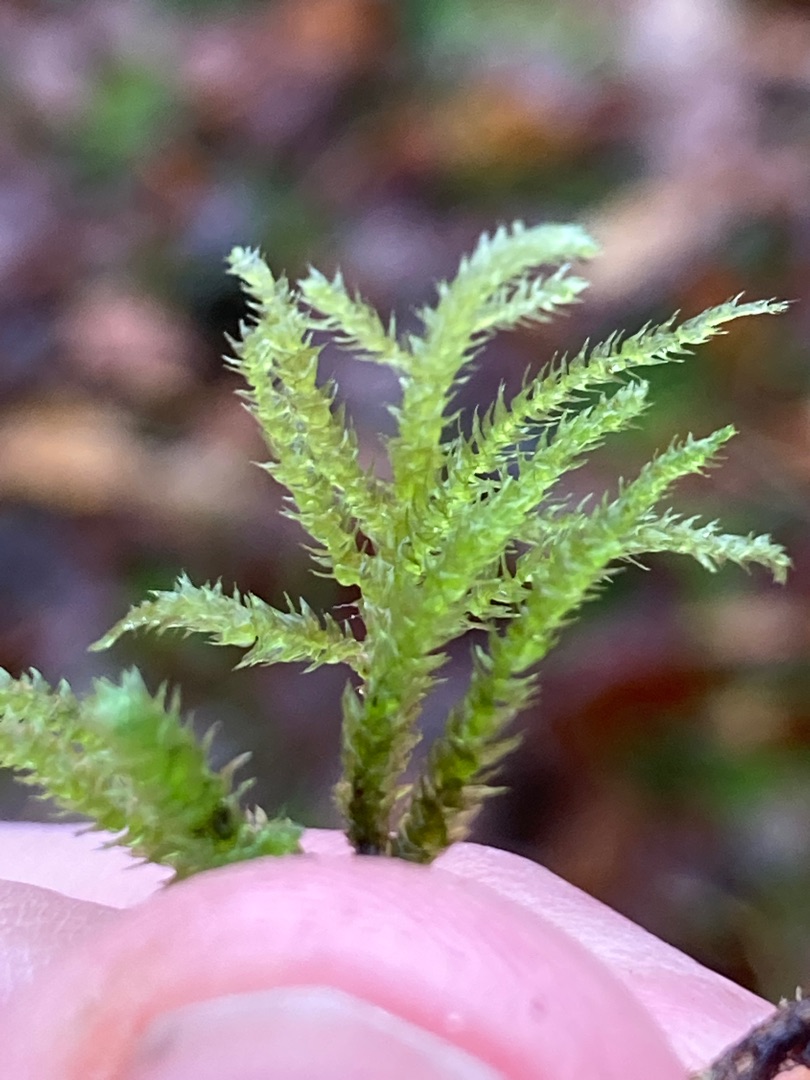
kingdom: Plantae
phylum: Bryophyta
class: Bryopsida
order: Hypnales
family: Brachytheciaceae
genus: Eurhynchium
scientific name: Eurhynchium striatum
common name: Stribet næbmos
